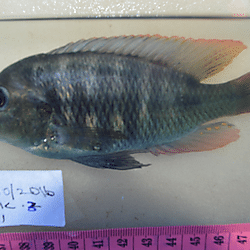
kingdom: Animalia
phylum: Chordata
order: Perciformes
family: Cichlidae
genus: Neochromis
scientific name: Neochromis
